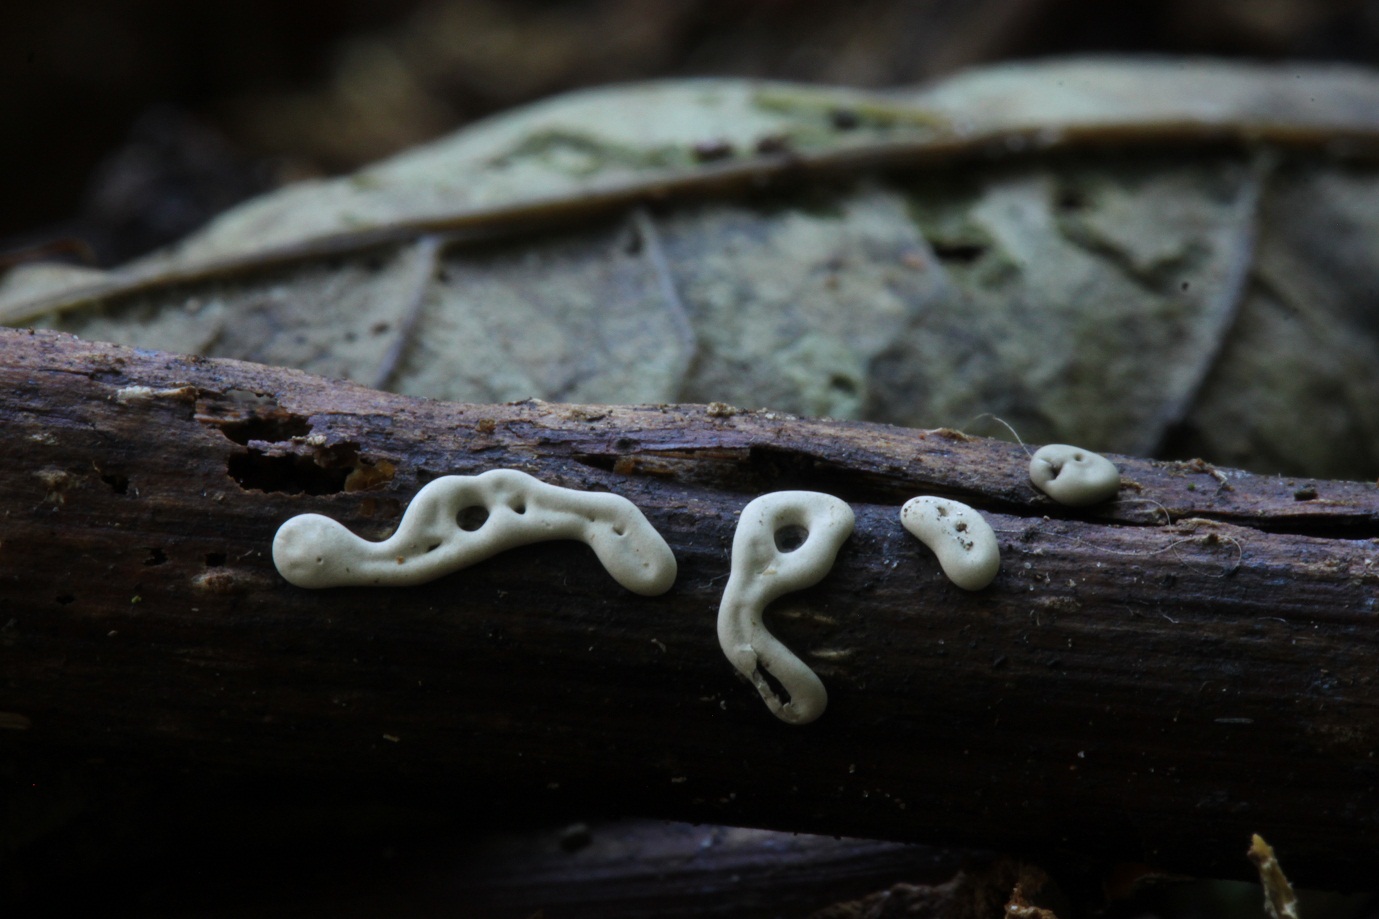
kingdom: Protozoa
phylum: Mycetozoa
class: Myxomycetes
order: Physarales
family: Didymiaceae
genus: Diderma
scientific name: Diderma deplanatum
